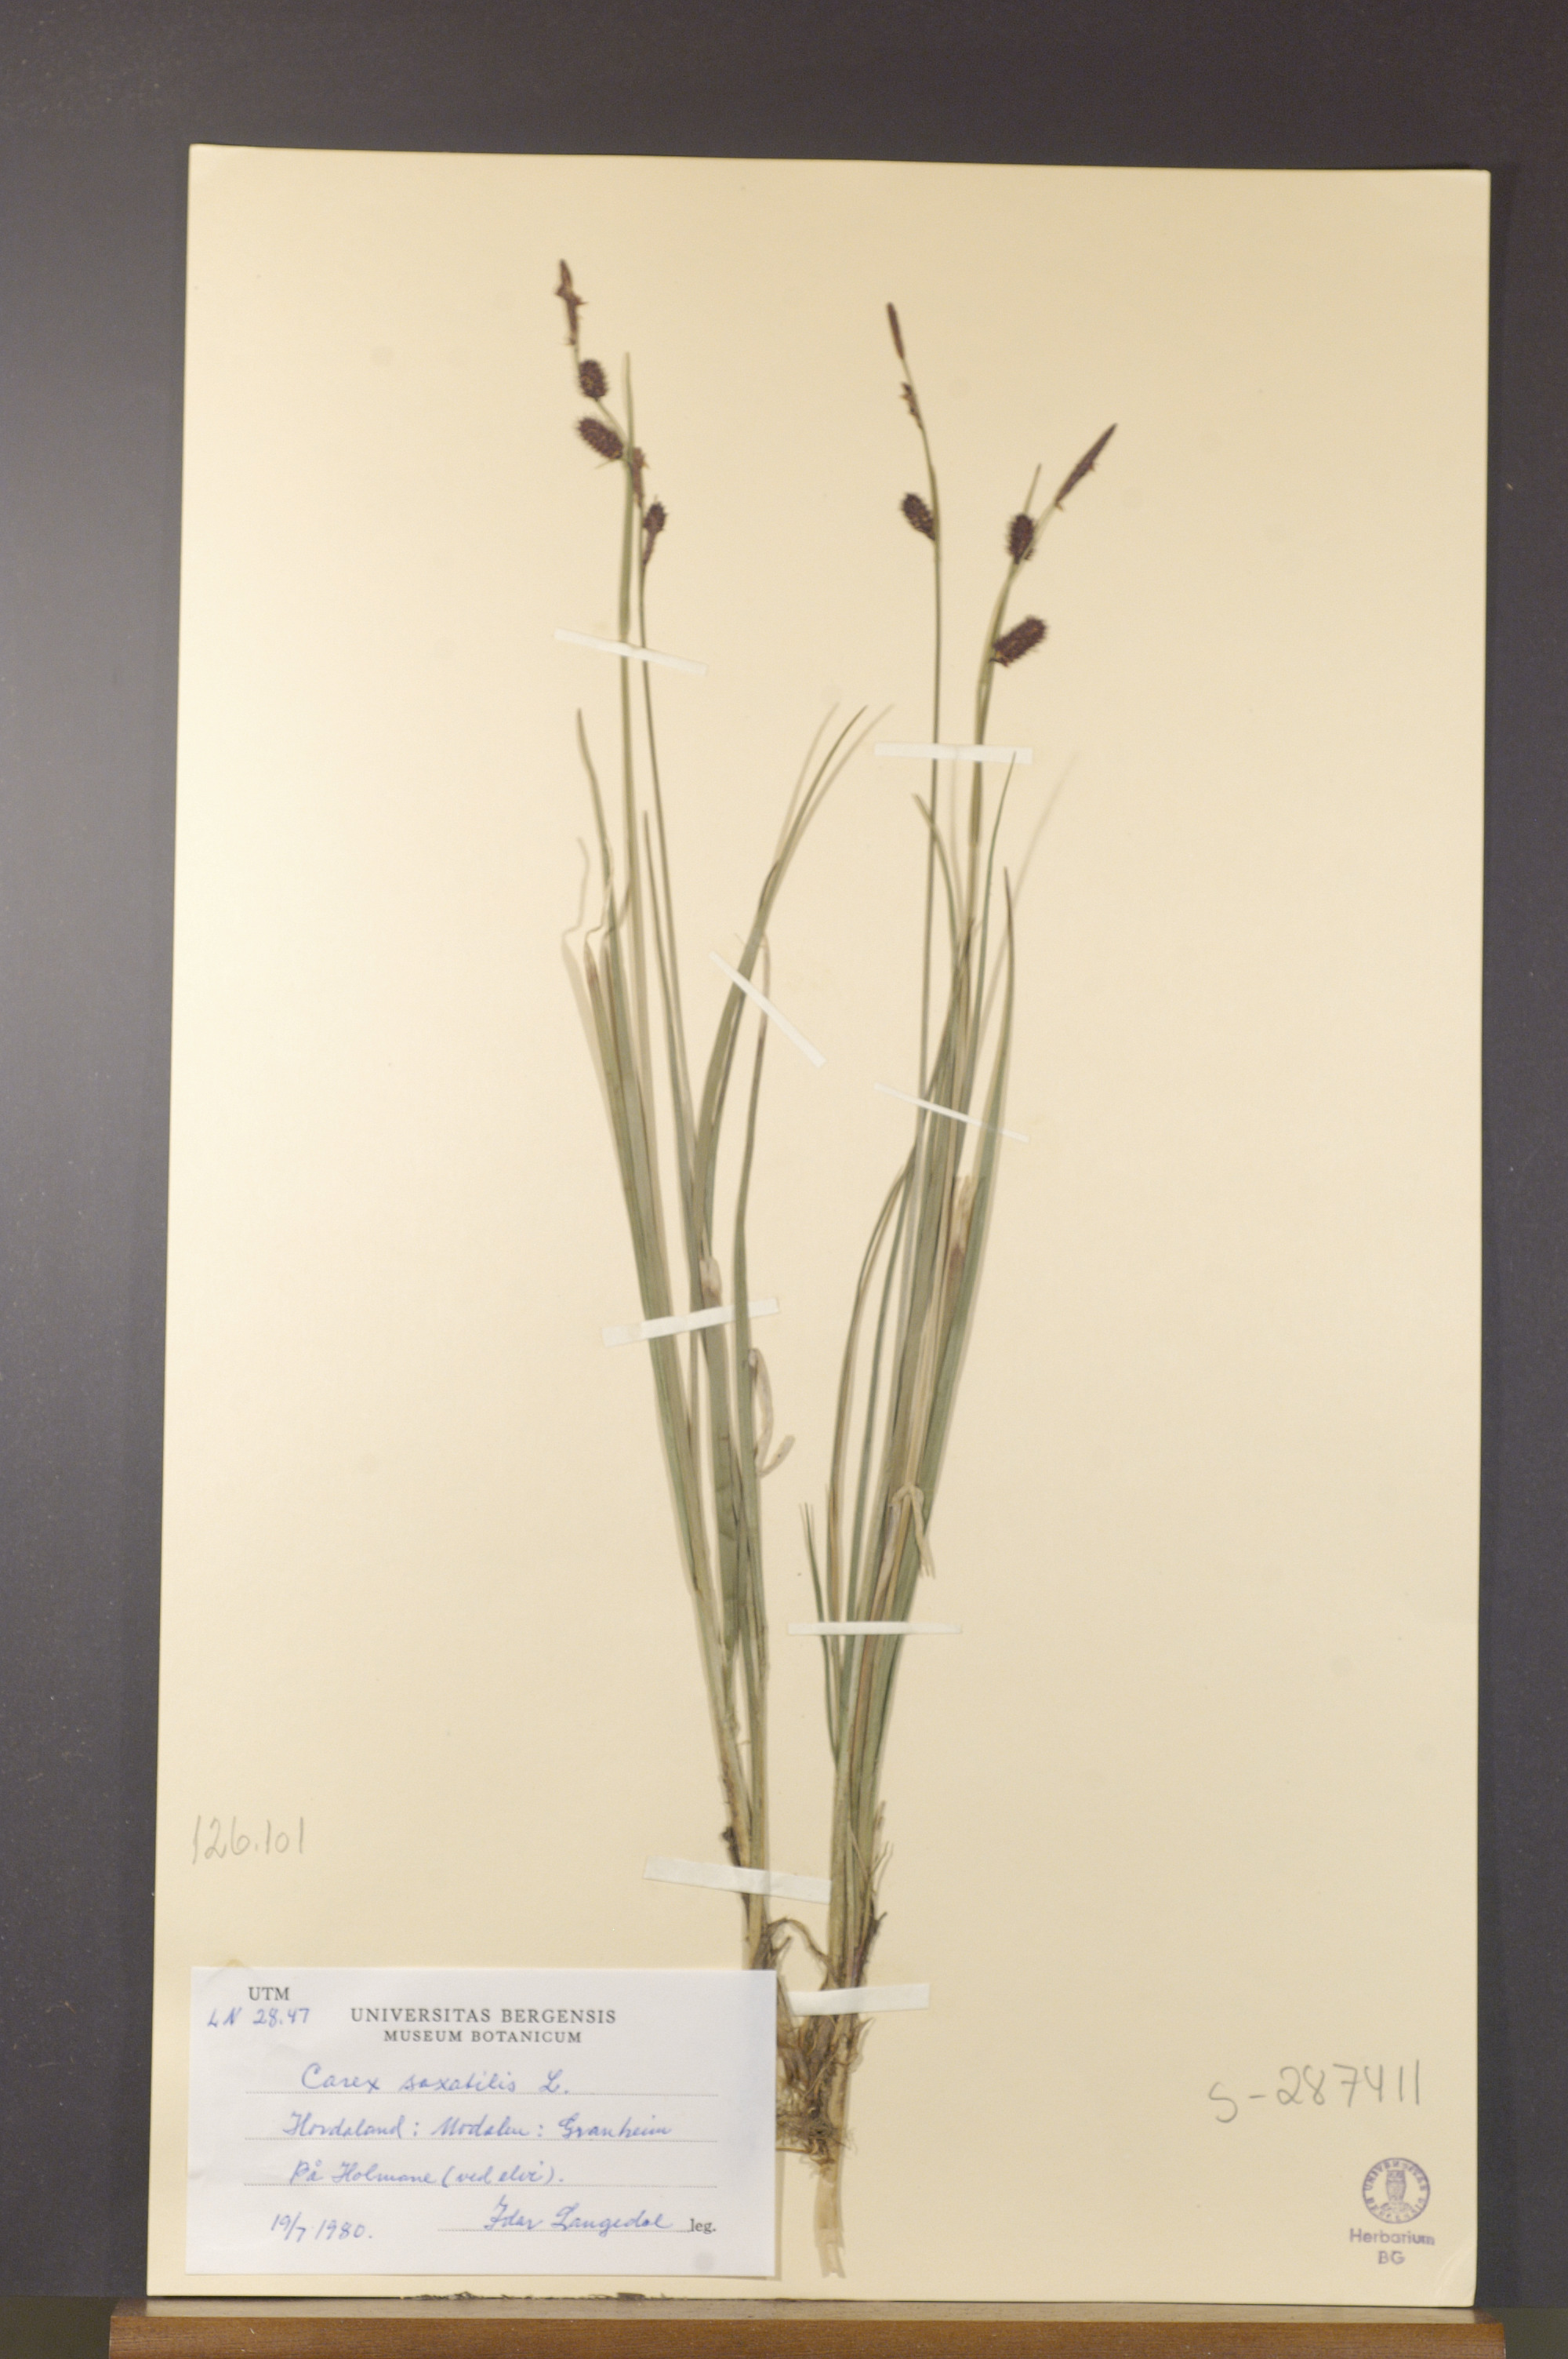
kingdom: Plantae
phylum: Tracheophyta
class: Liliopsida
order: Poales
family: Cyperaceae
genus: Carex
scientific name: Carex saxatilis
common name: Russet sedge
